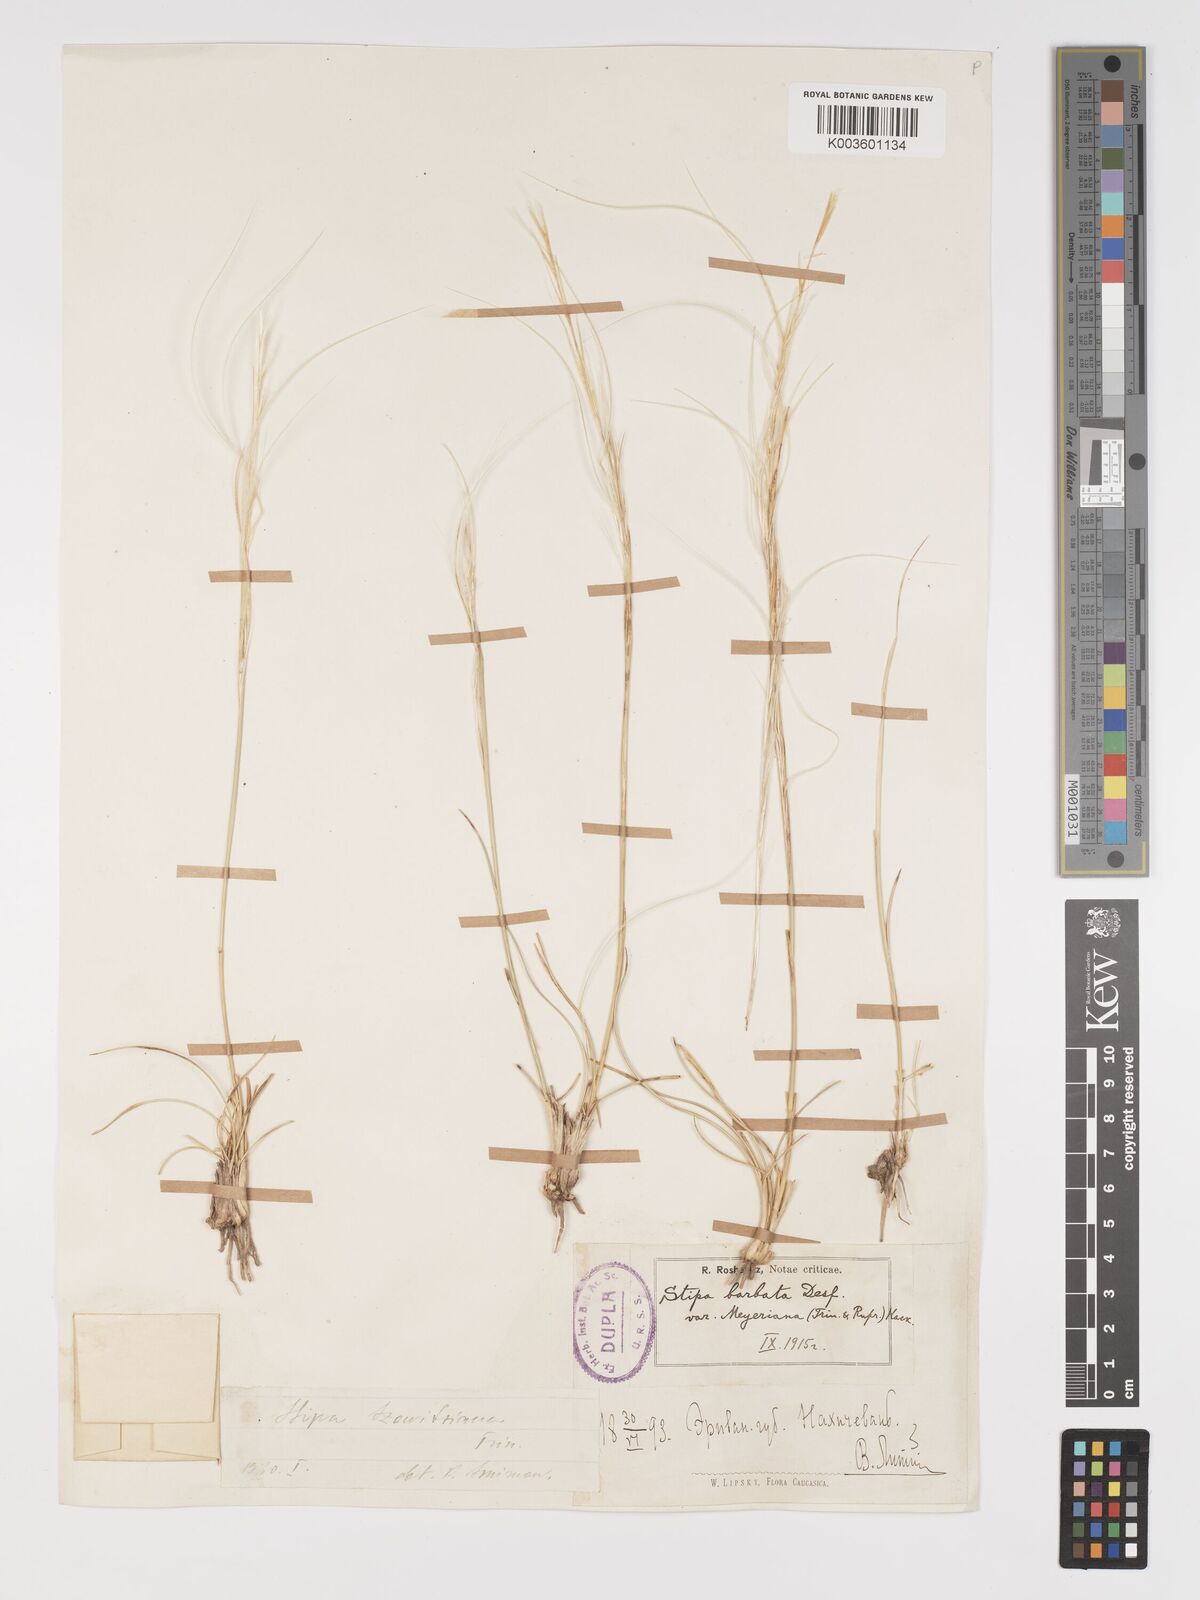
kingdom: Plantae
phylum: Tracheophyta
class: Liliopsida
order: Poales
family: Poaceae
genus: Stipa
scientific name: Stipa orientalis
